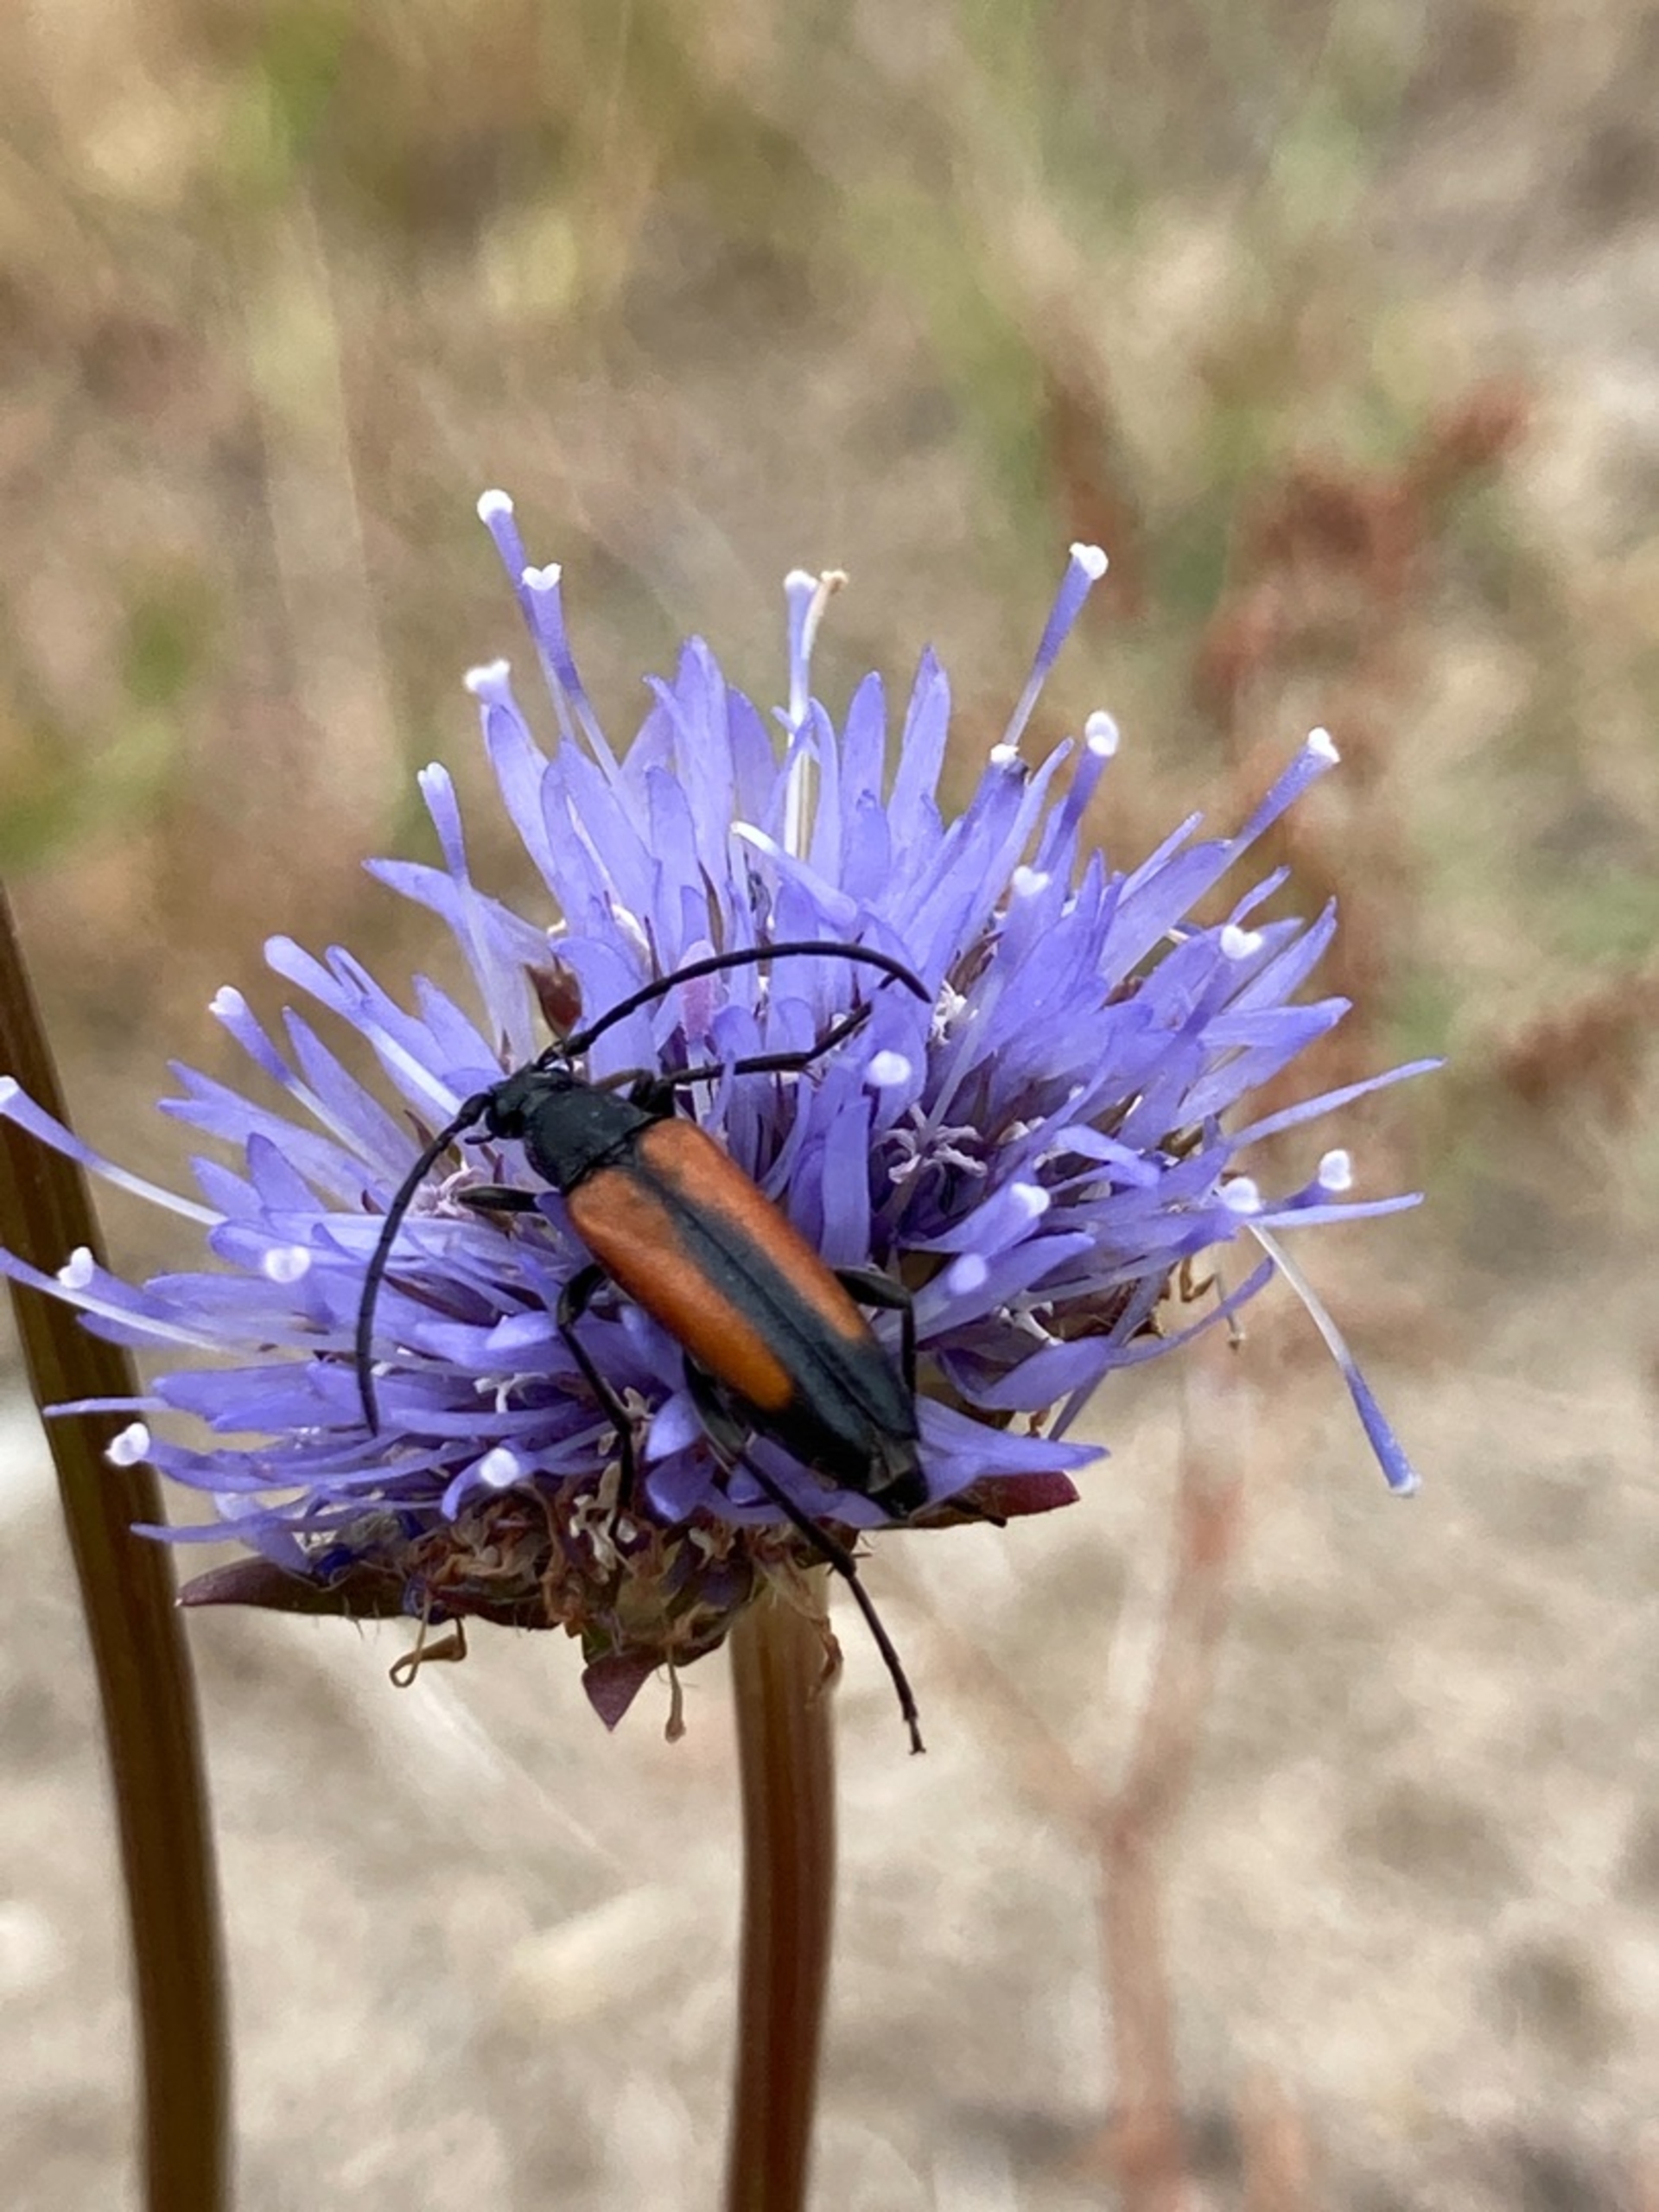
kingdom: Animalia
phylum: Arthropoda
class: Insecta
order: Coleoptera
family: Cerambycidae
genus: Stenurella
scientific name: Stenurella melanura
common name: Sortsømmet blomsterbuk
